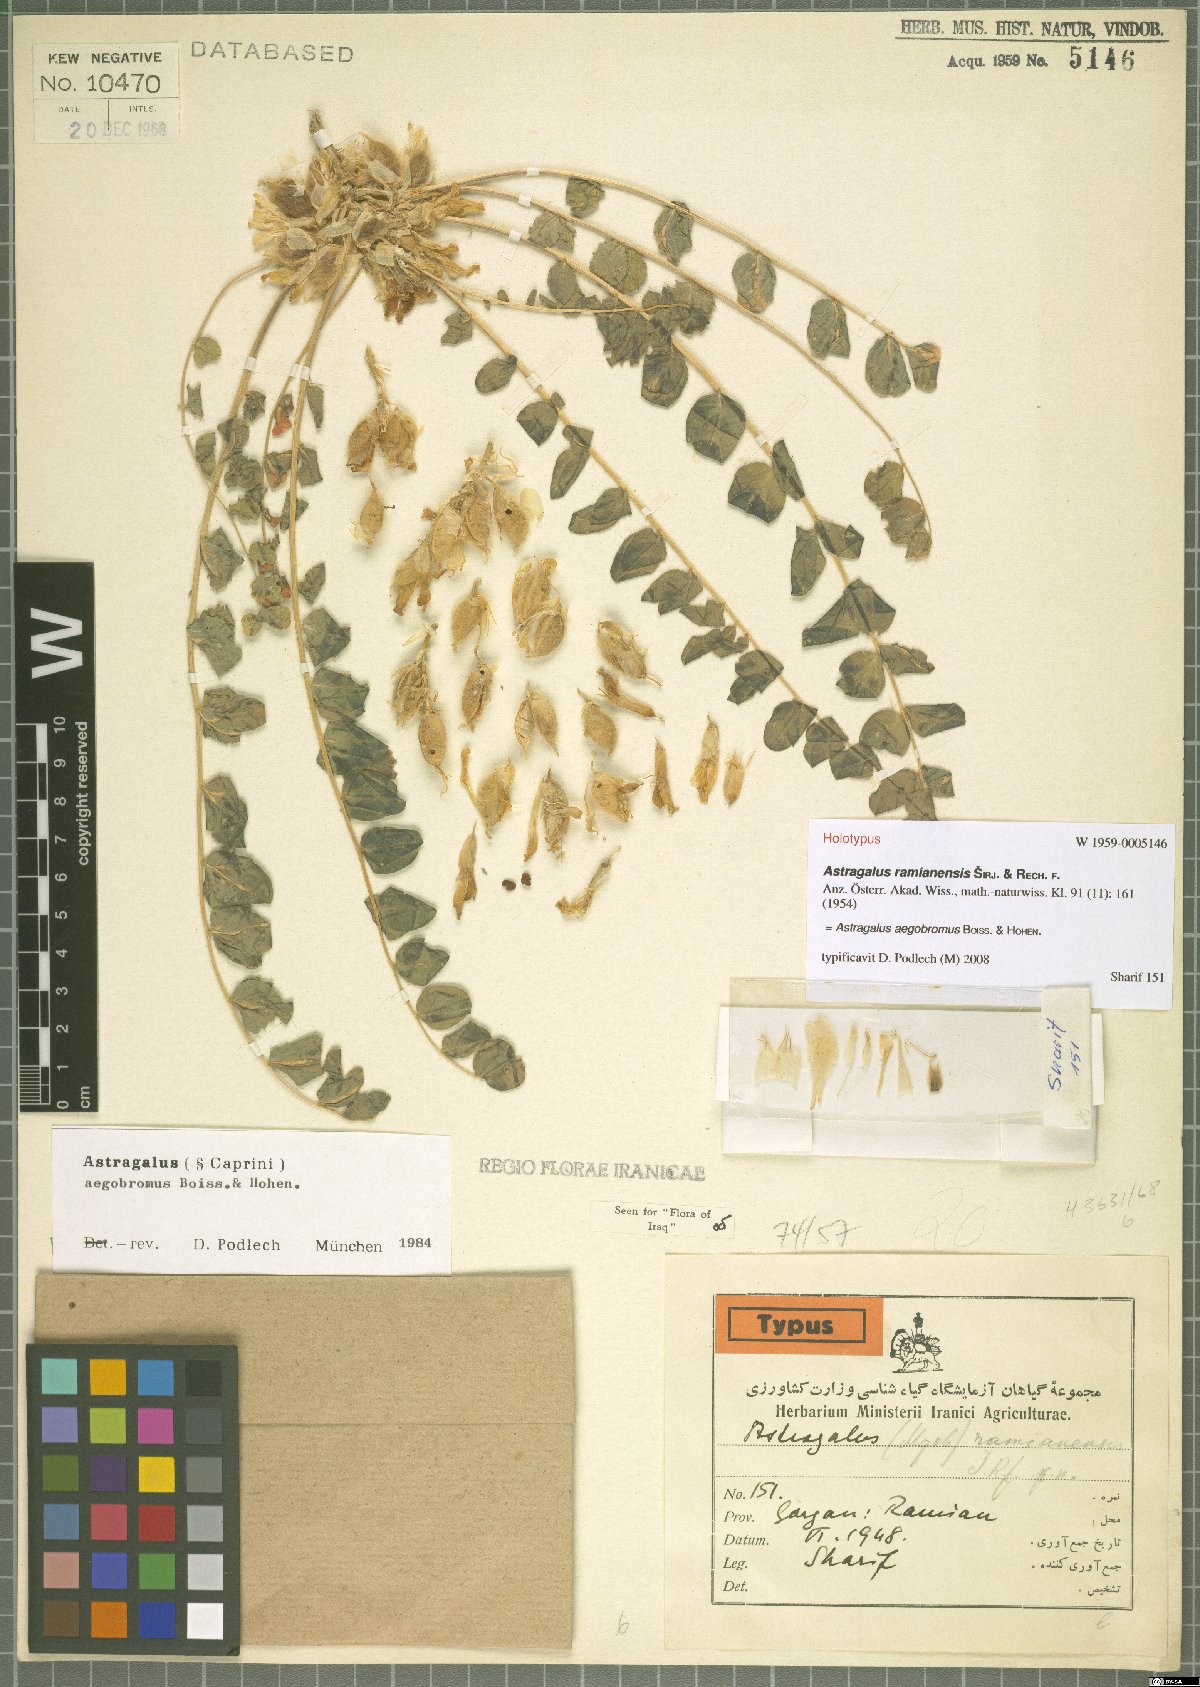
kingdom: Plantae
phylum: Tracheophyta
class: Magnoliopsida
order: Fabales
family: Fabaceae
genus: Astragalus
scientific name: Astragalus aegobromus
